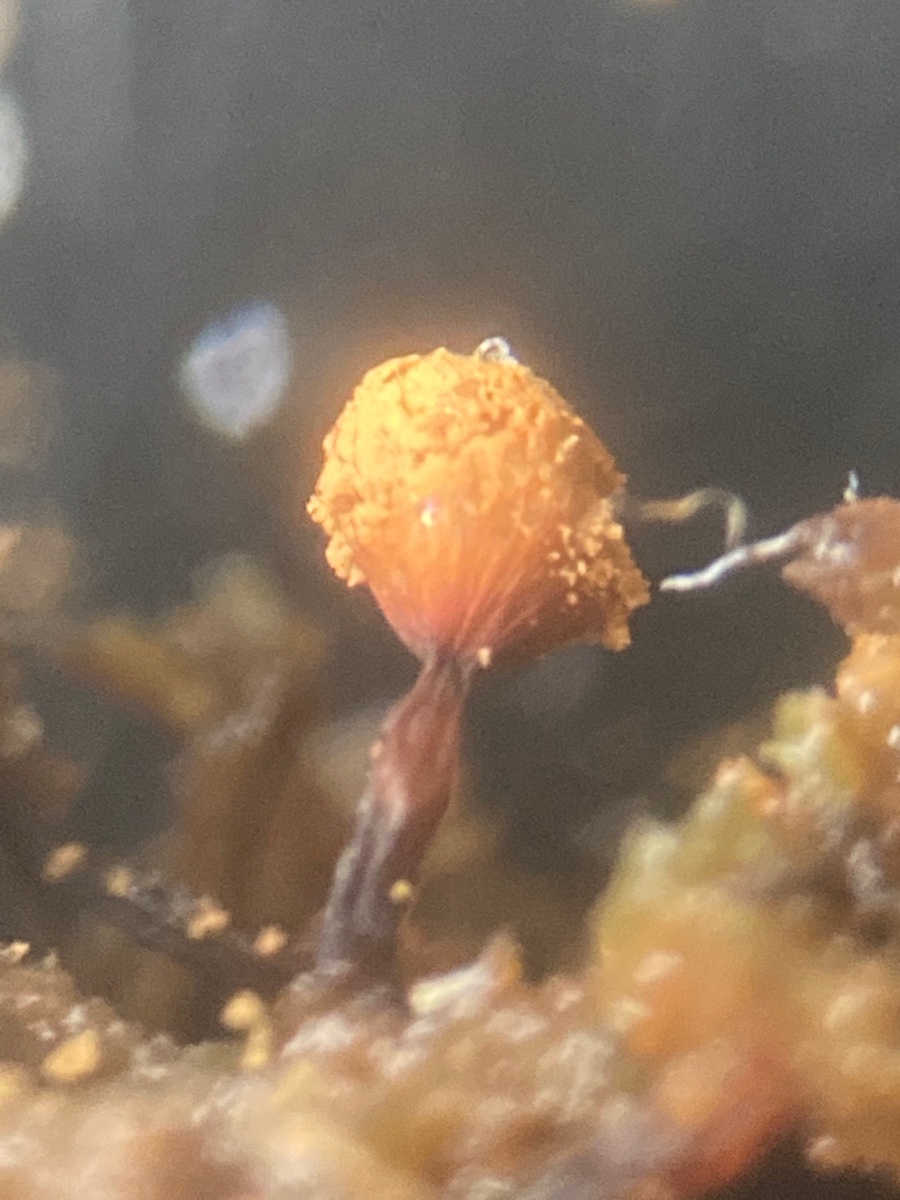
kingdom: Protozoa
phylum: Mycetozoa
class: Myxomycetes
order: Cribrariales
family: Cribrariaceae
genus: Cribraria
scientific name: Cribraria rufa
